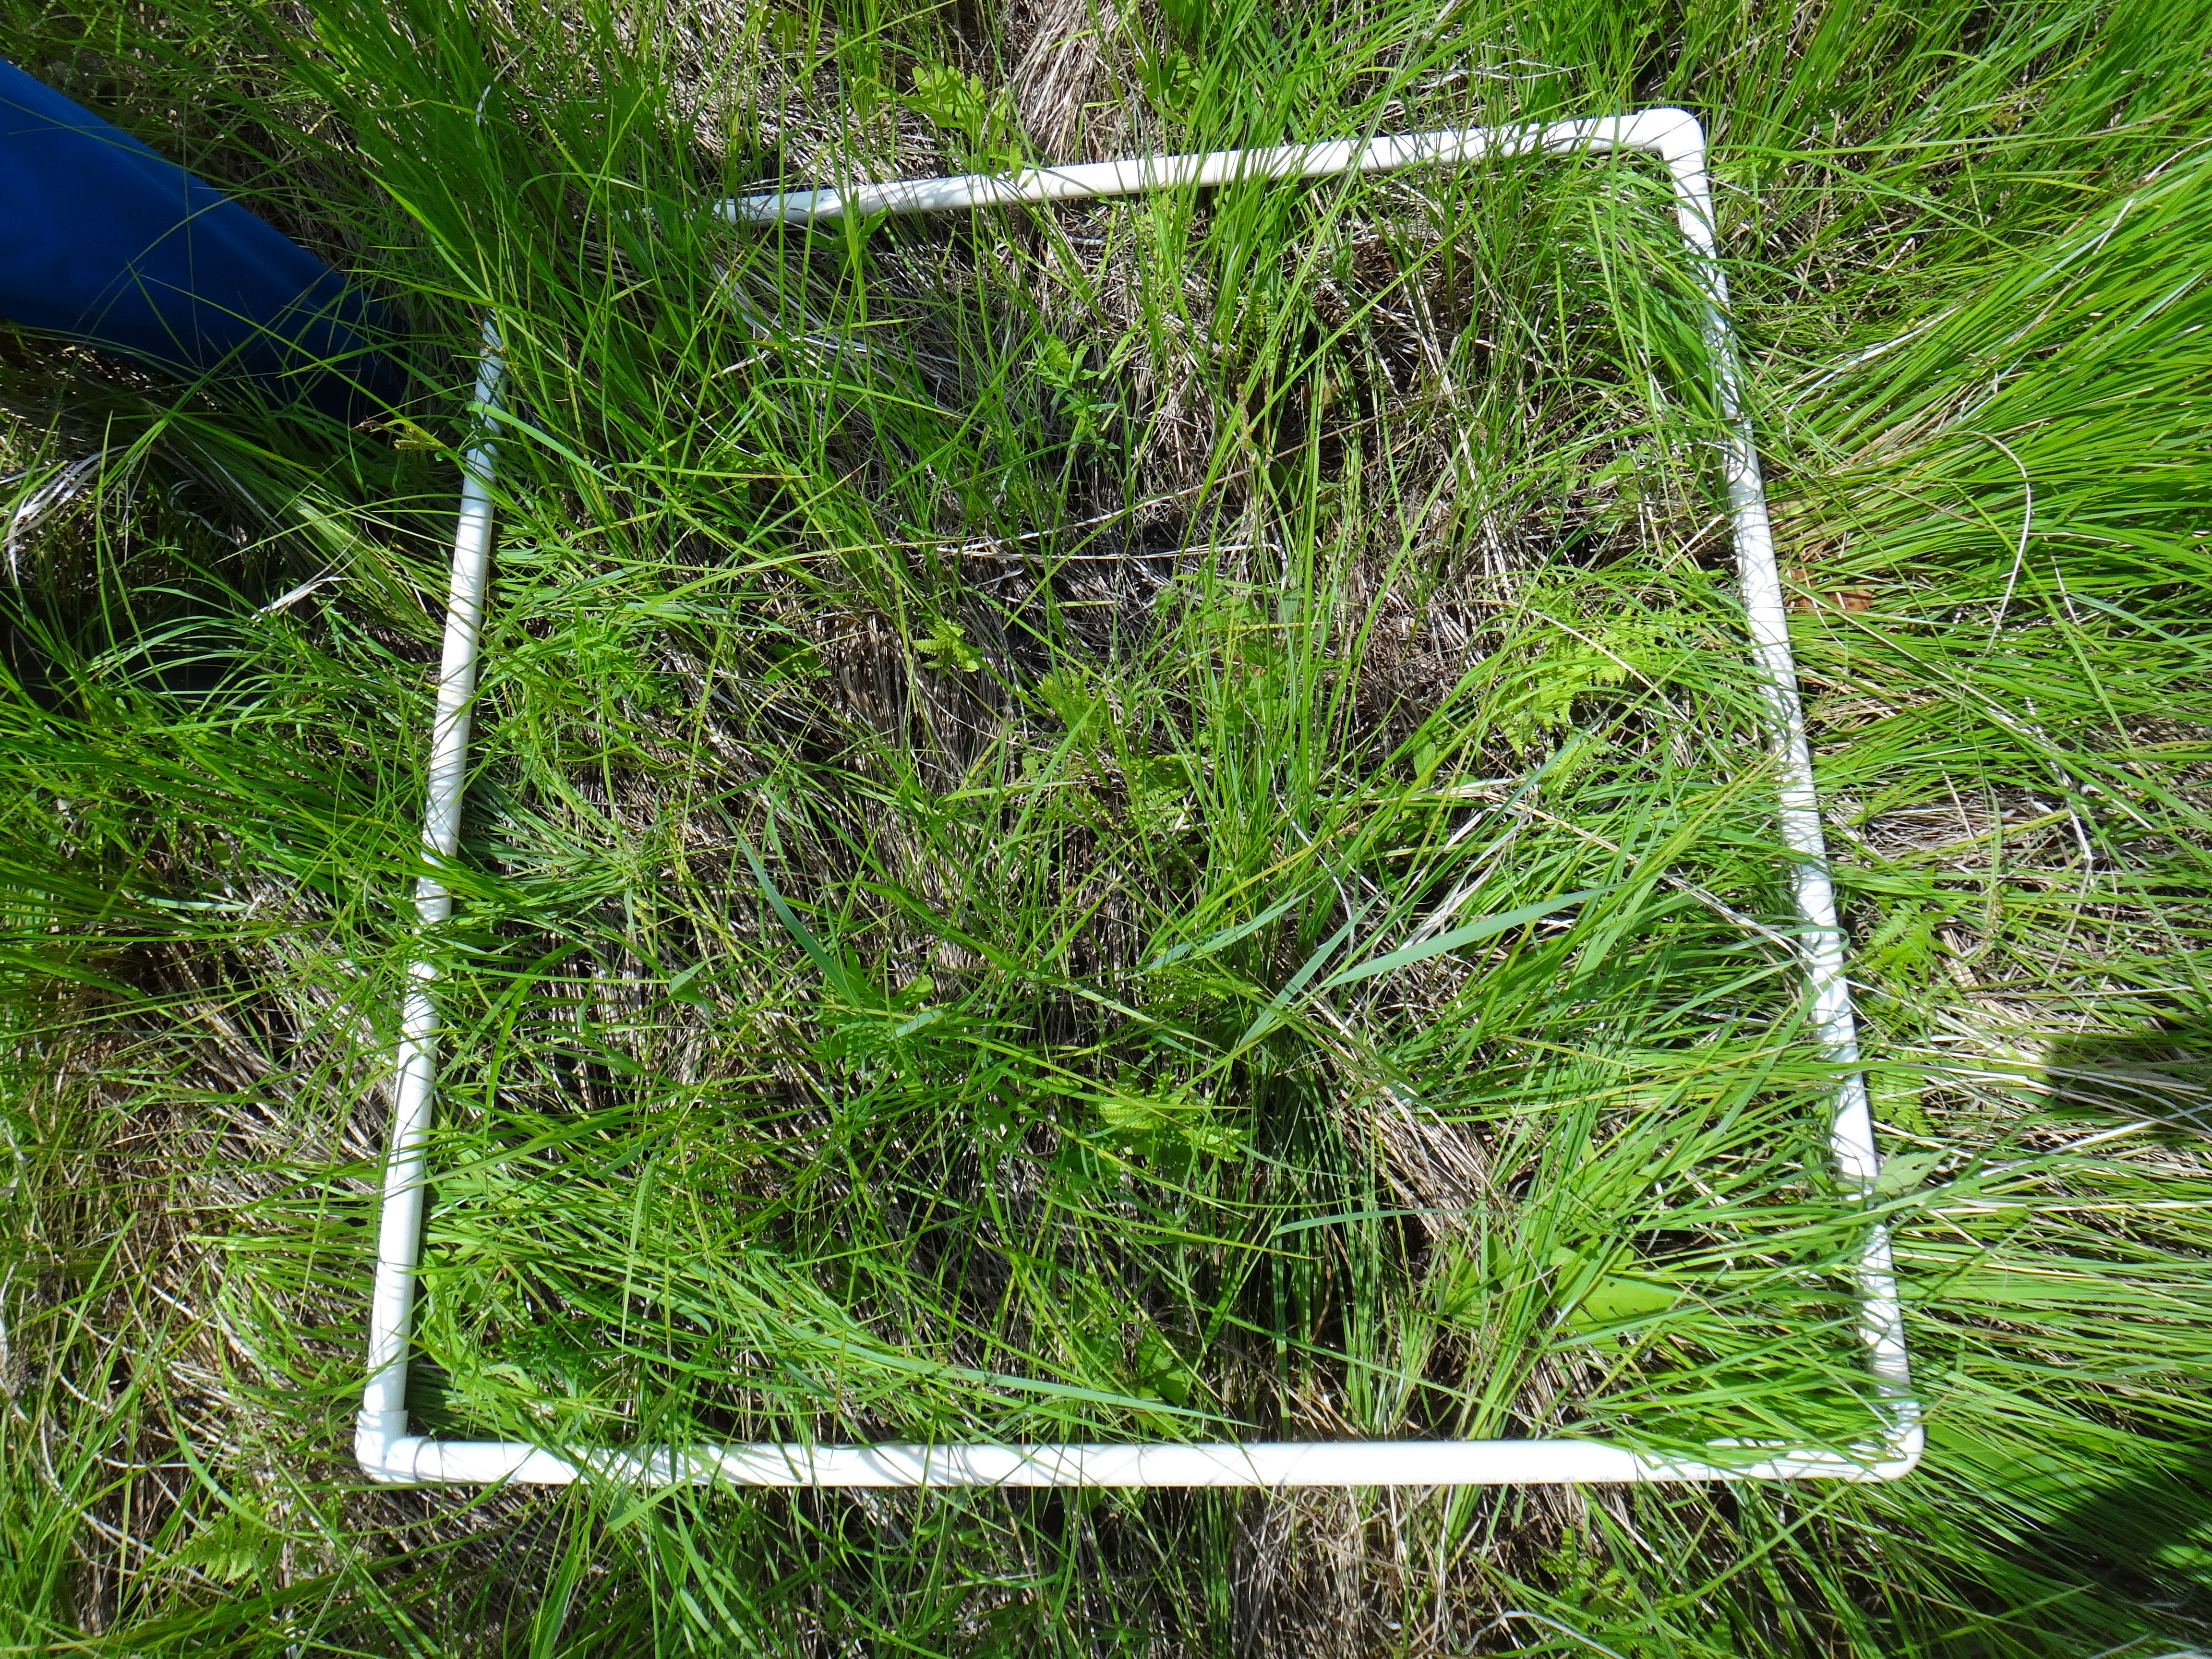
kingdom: Plantae
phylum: Tracheophyta
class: Polypodiopsida
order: Polypodiales
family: Onocleaceae
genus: Onoclea
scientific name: Onoclea sensibilis
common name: Sensitive fern
